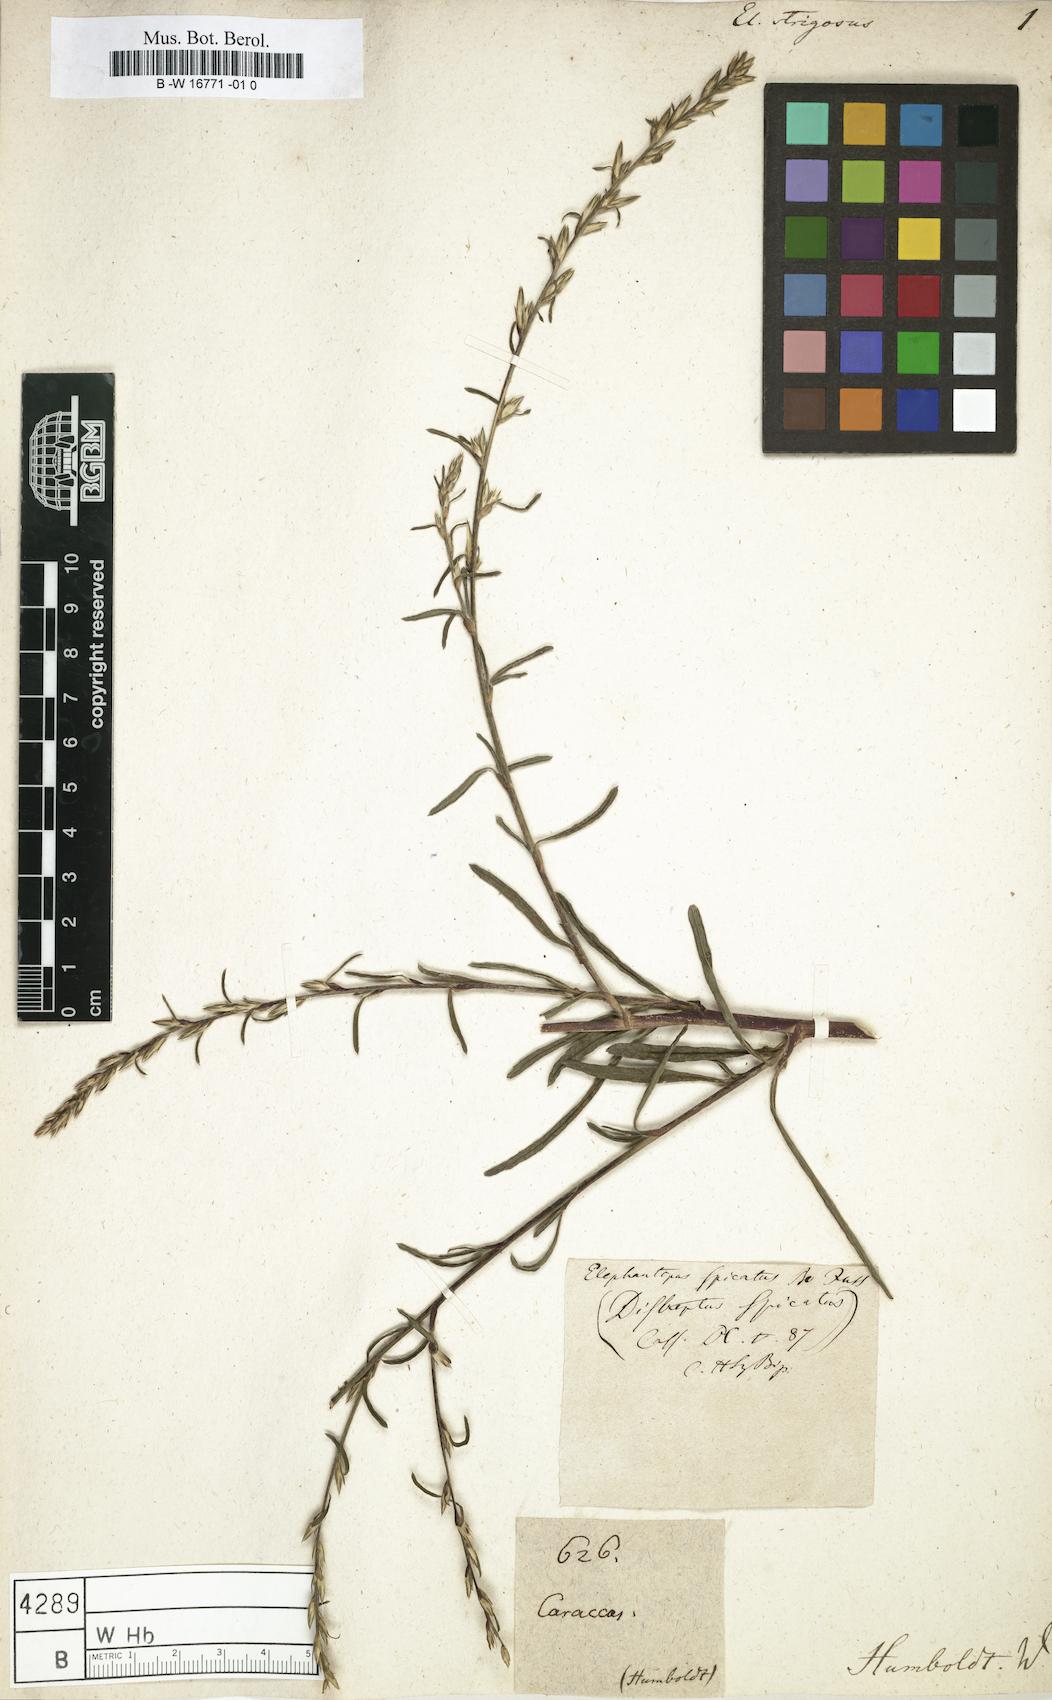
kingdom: Plantae
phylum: Tracheophyta
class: Magnoliopsida
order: Asterales
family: Asteraceae
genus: Pseudelephantopus
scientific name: Pseudelephantopus spicatus
